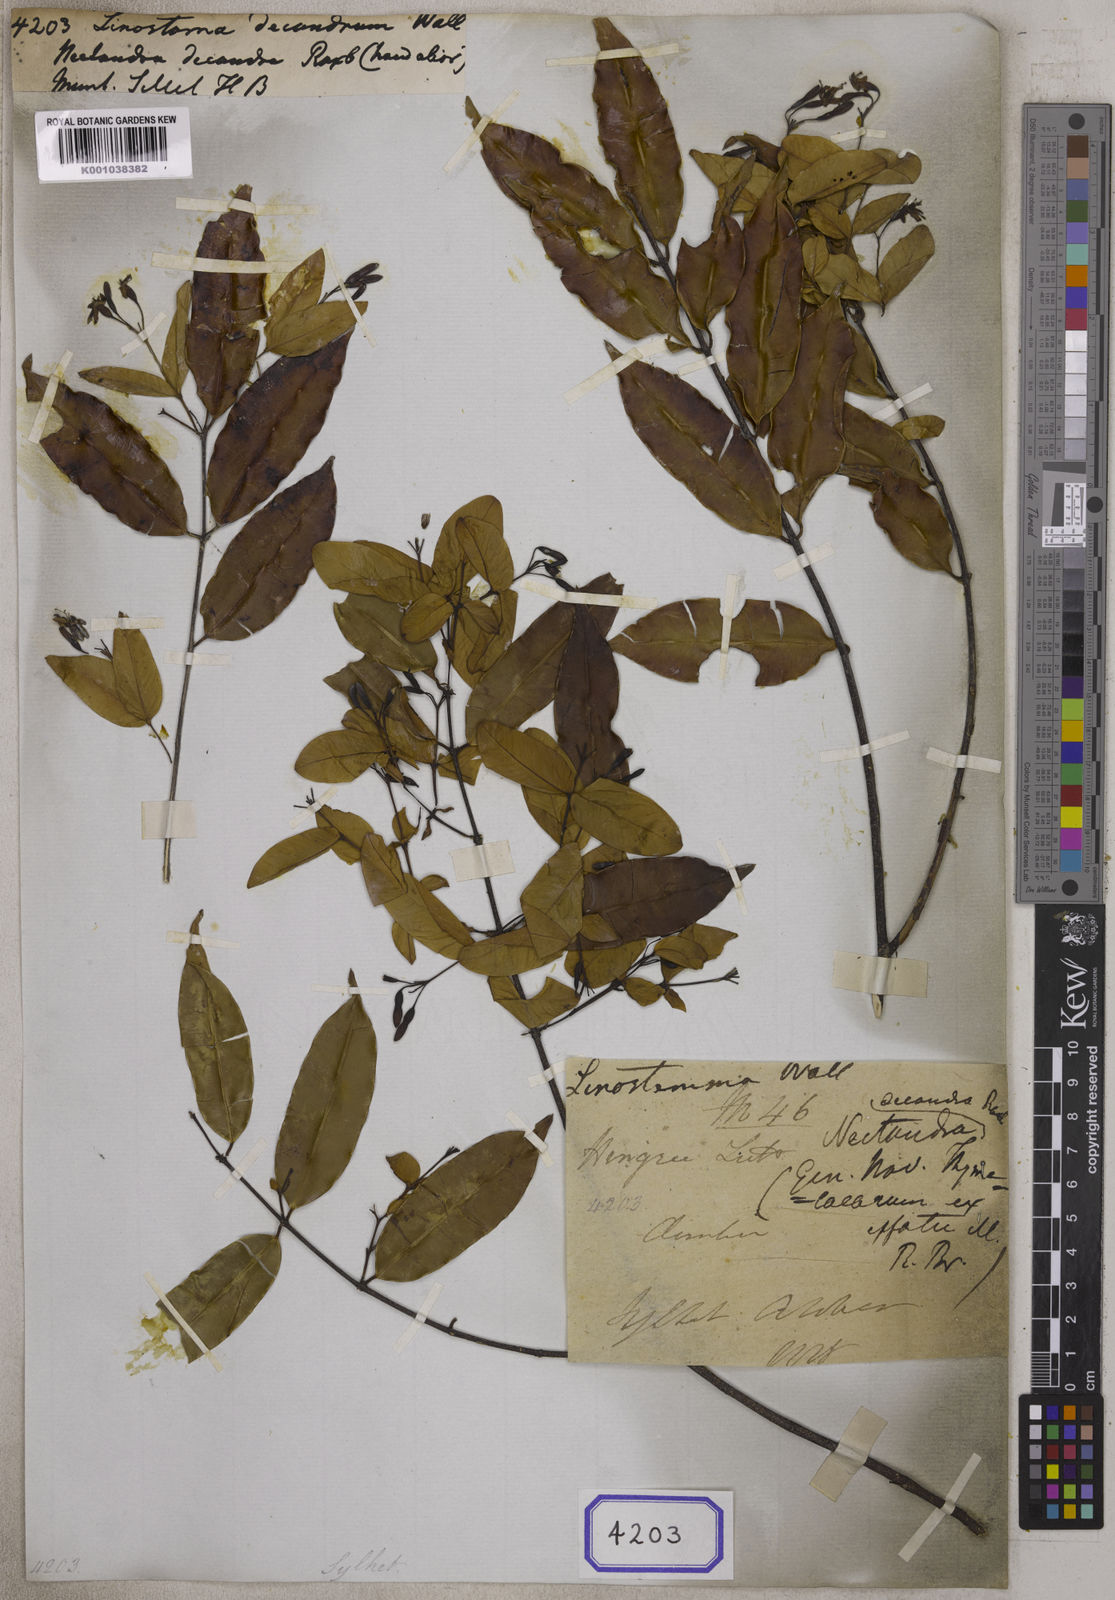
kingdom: Plantae
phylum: Tracheophyta
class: Magnoliopsida
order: Malvales
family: Thymelaeaceae
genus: Linostoma
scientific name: Linostoma
